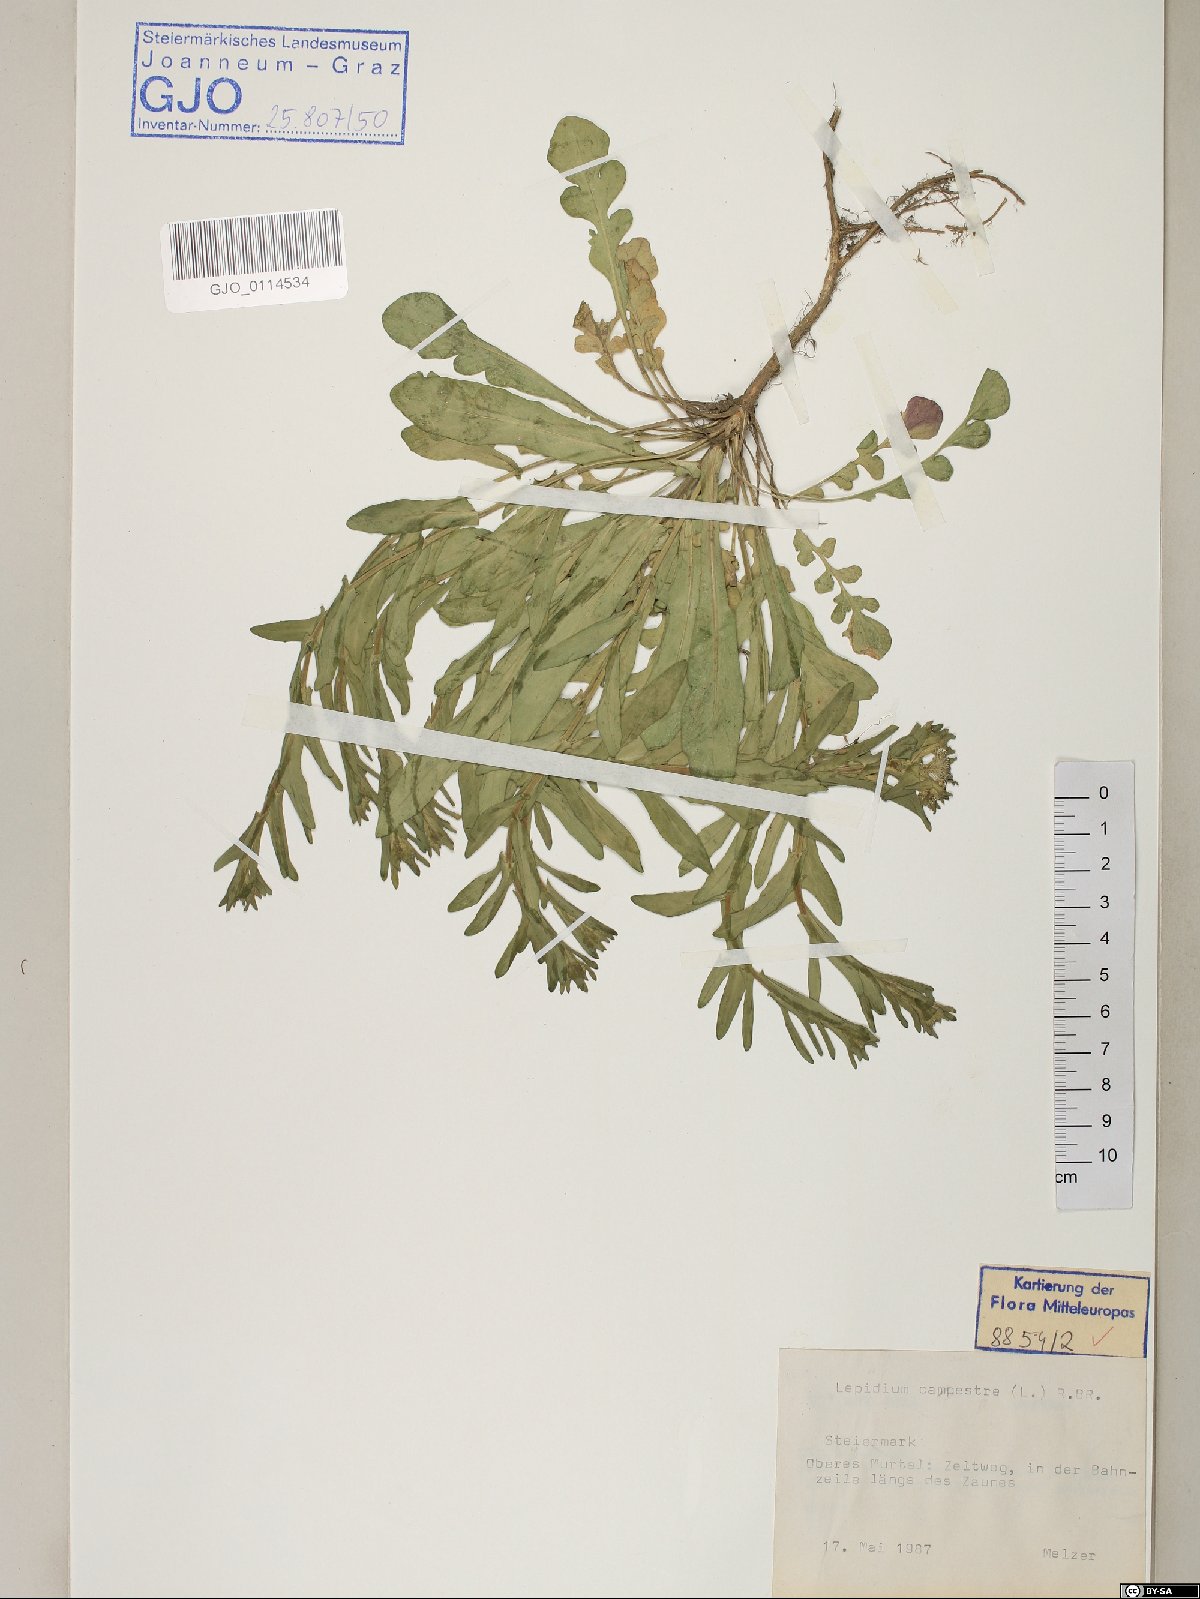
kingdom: Plantae
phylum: Tracheophyta
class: Magnoliopsida
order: Brassicales
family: Brassicaceae
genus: Lepidium
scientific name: Lepidium campestre
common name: Field pepperwort
